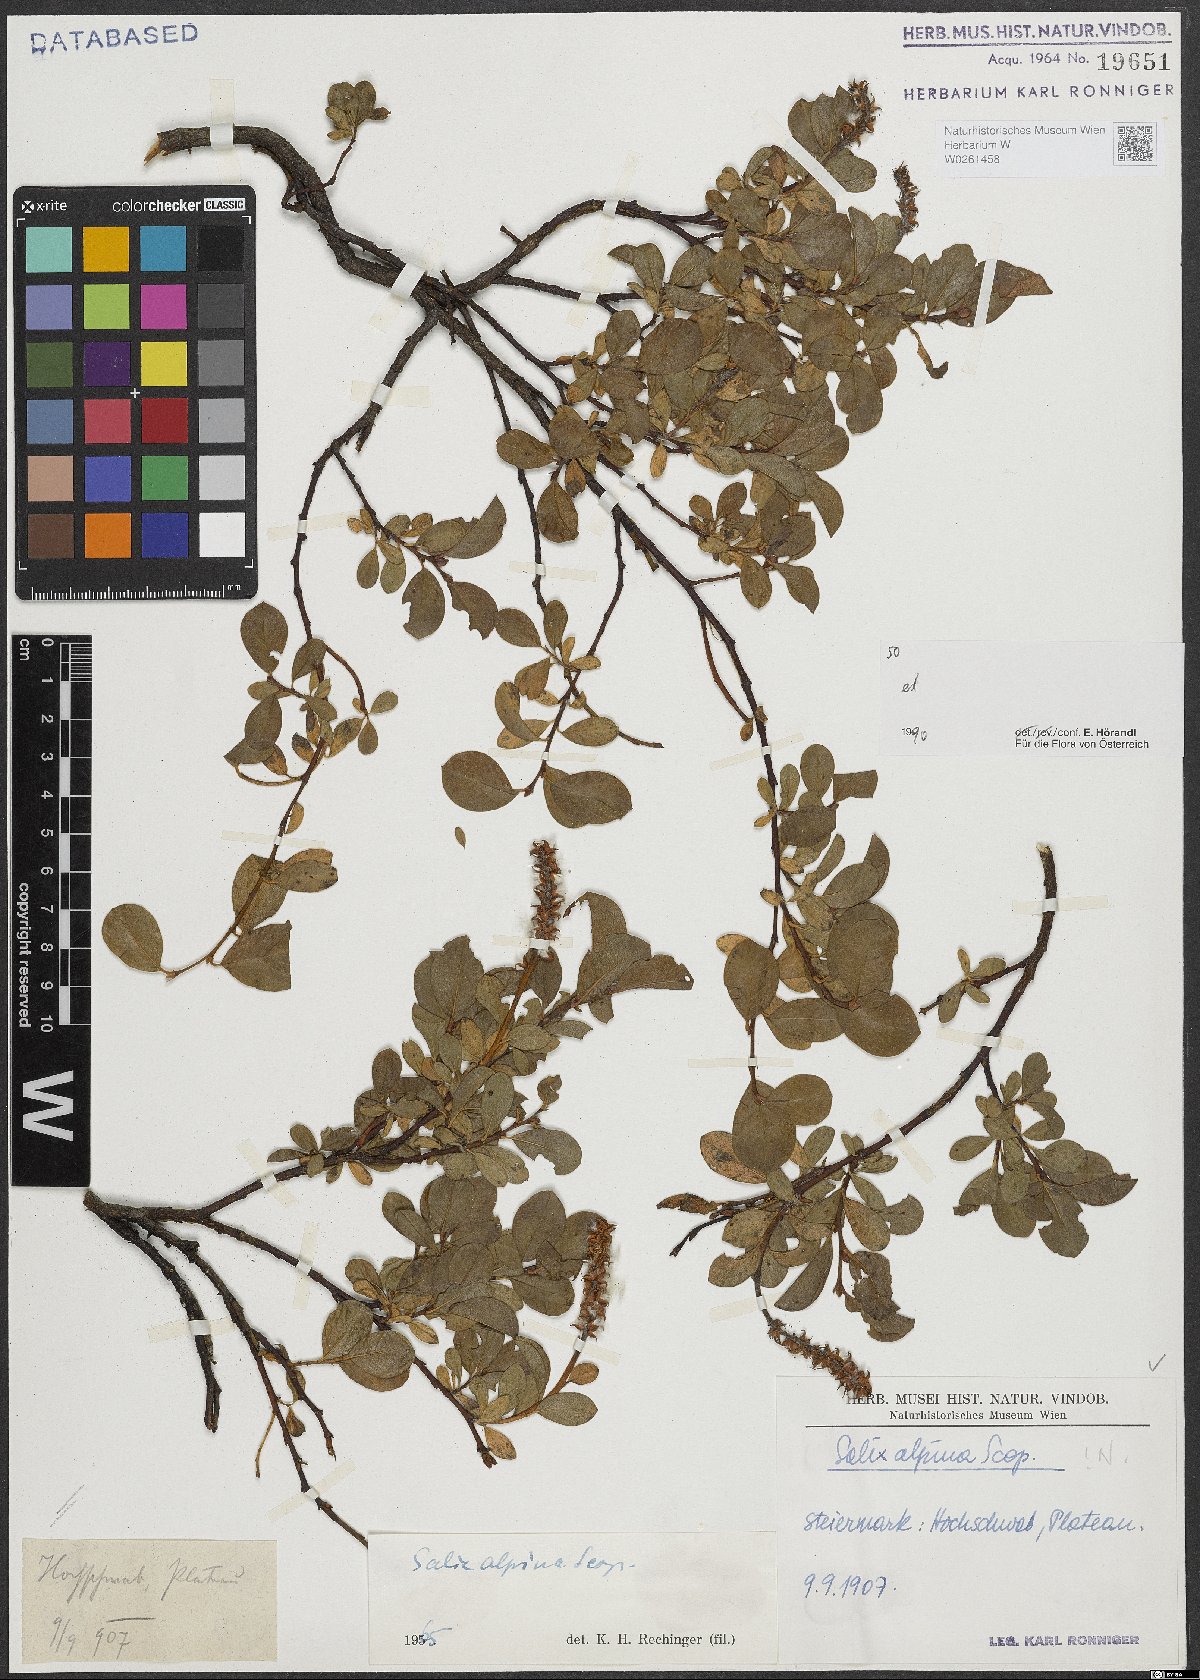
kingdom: Plantae
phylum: Tracheophyta
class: Magnoliopsida
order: Malpighiales
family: Salicaceae
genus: Salix
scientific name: Salix alpina
